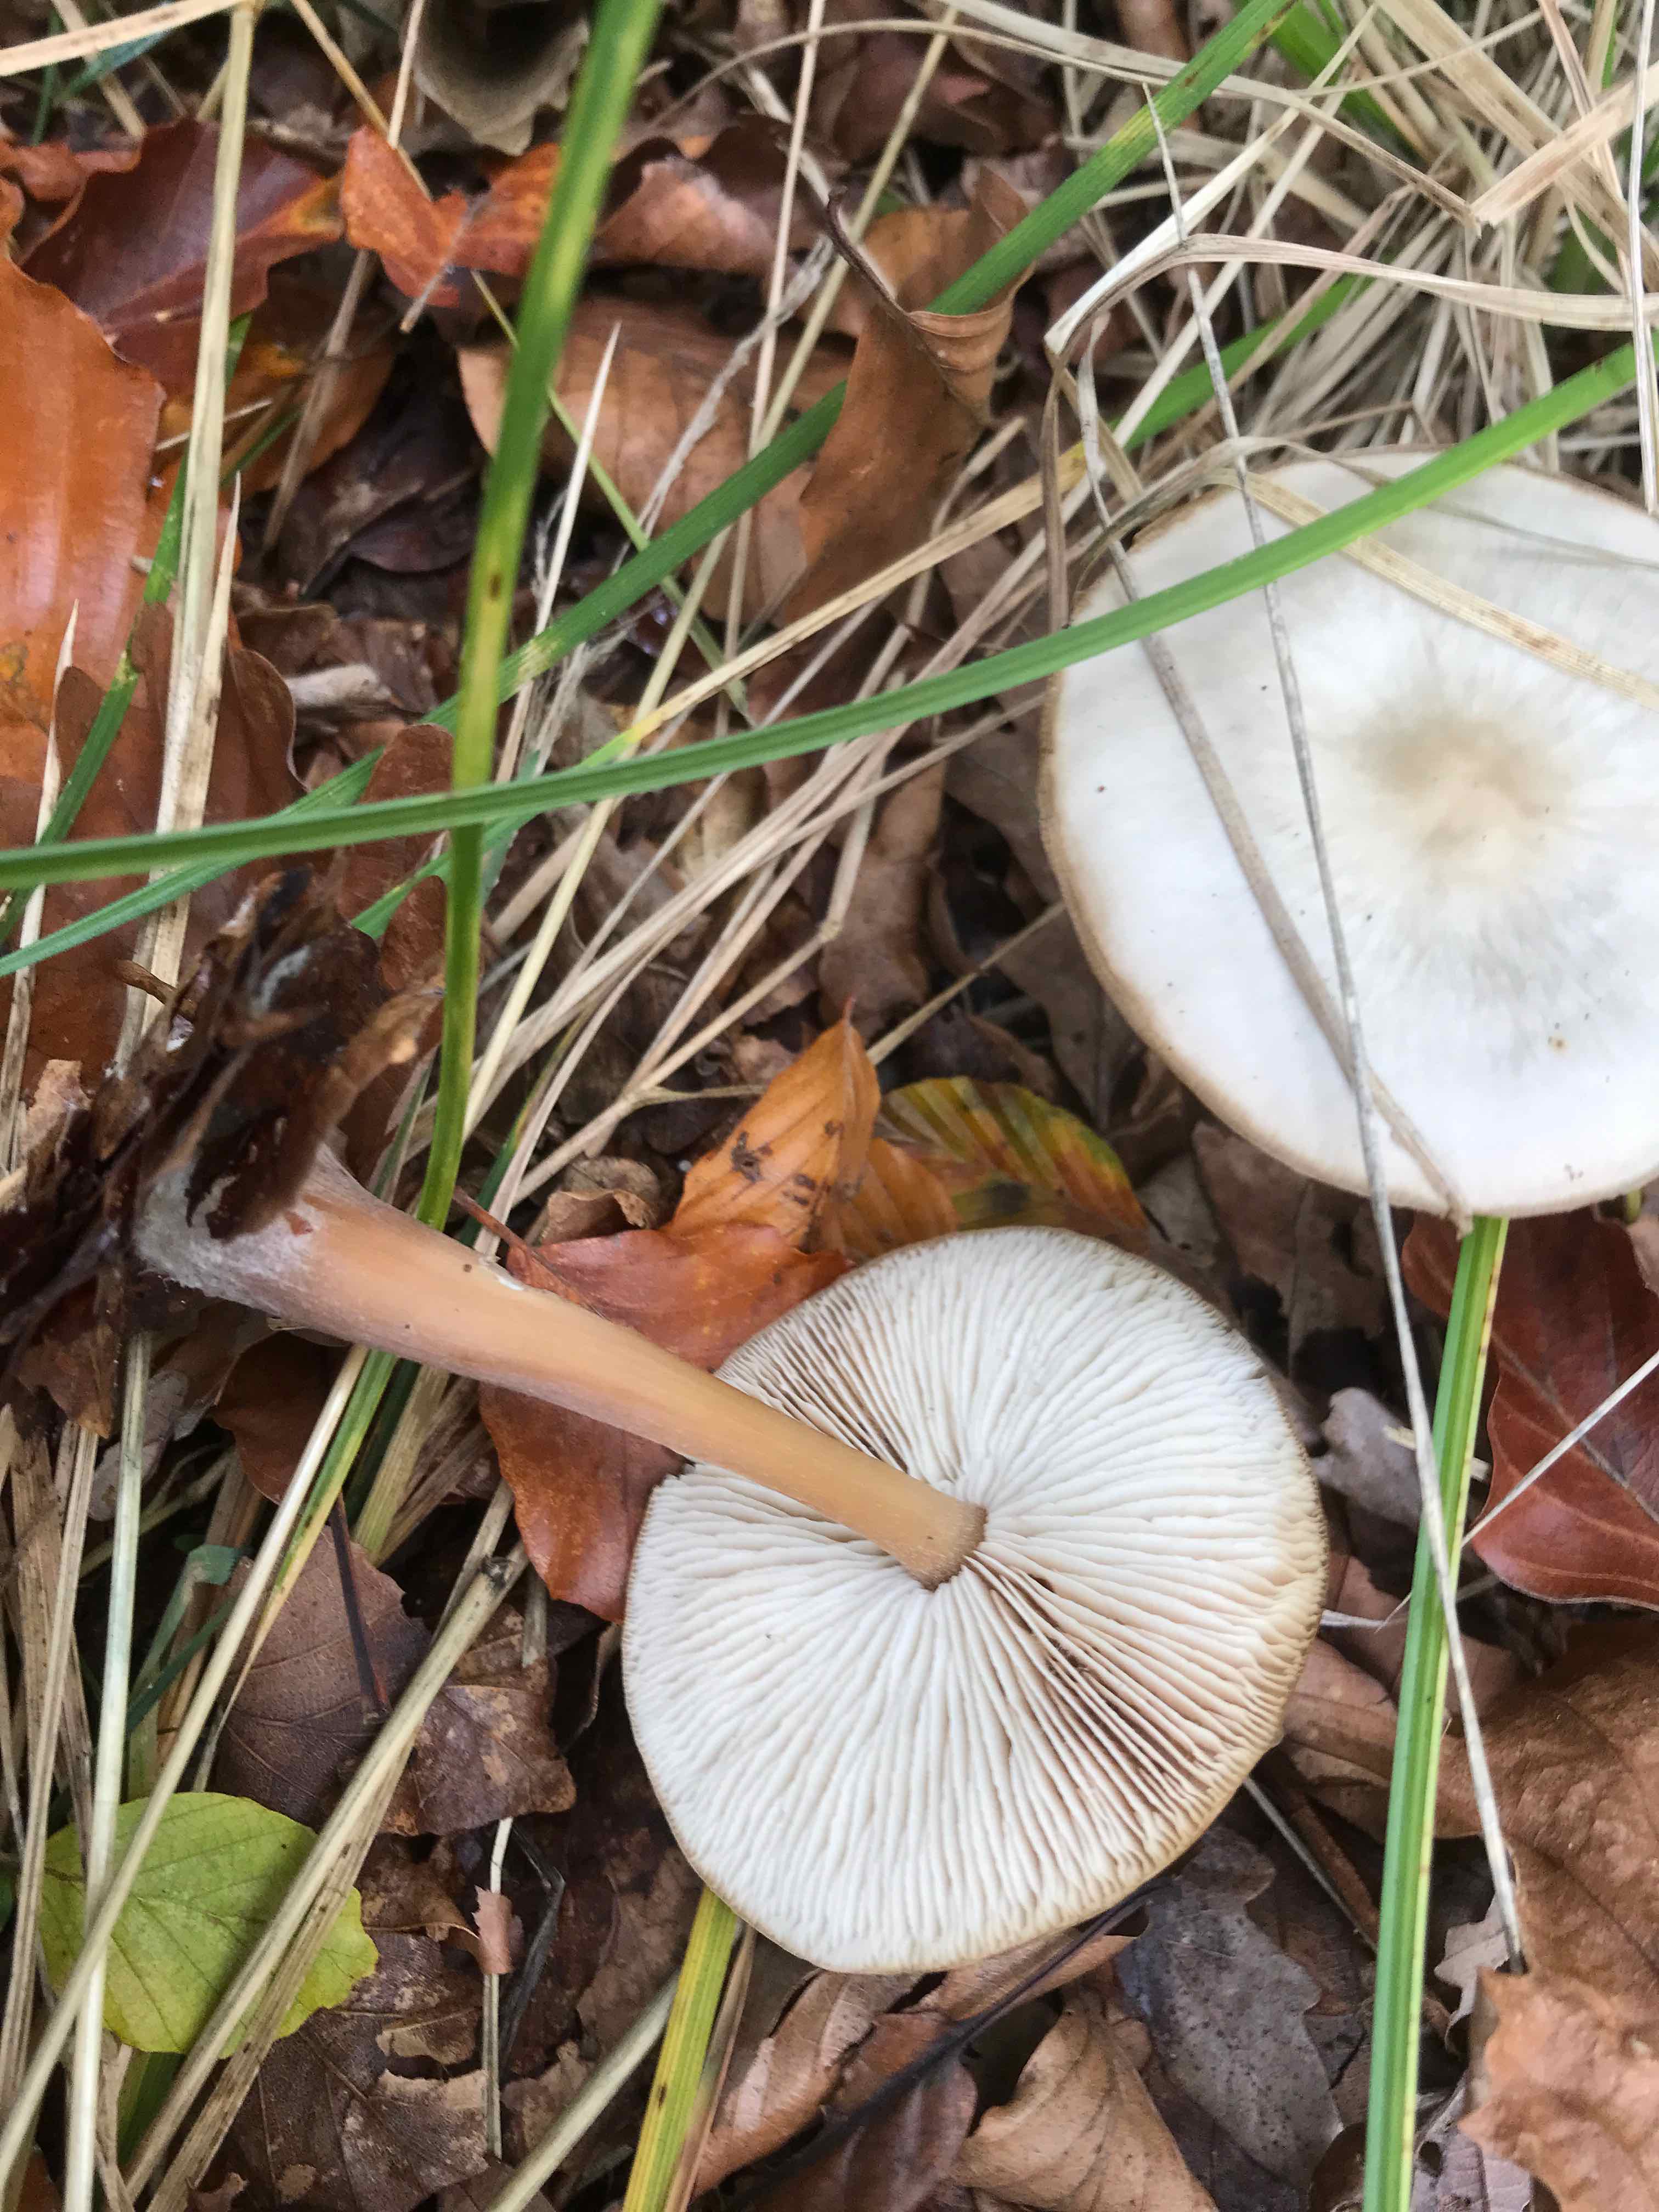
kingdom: Fungi
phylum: Basidiomycota
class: Agaricomycetes
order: Agaricales
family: Omphalotaceae
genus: Rhodocollybia
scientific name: Rhodocollybia asema
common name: horngrå fladhat
